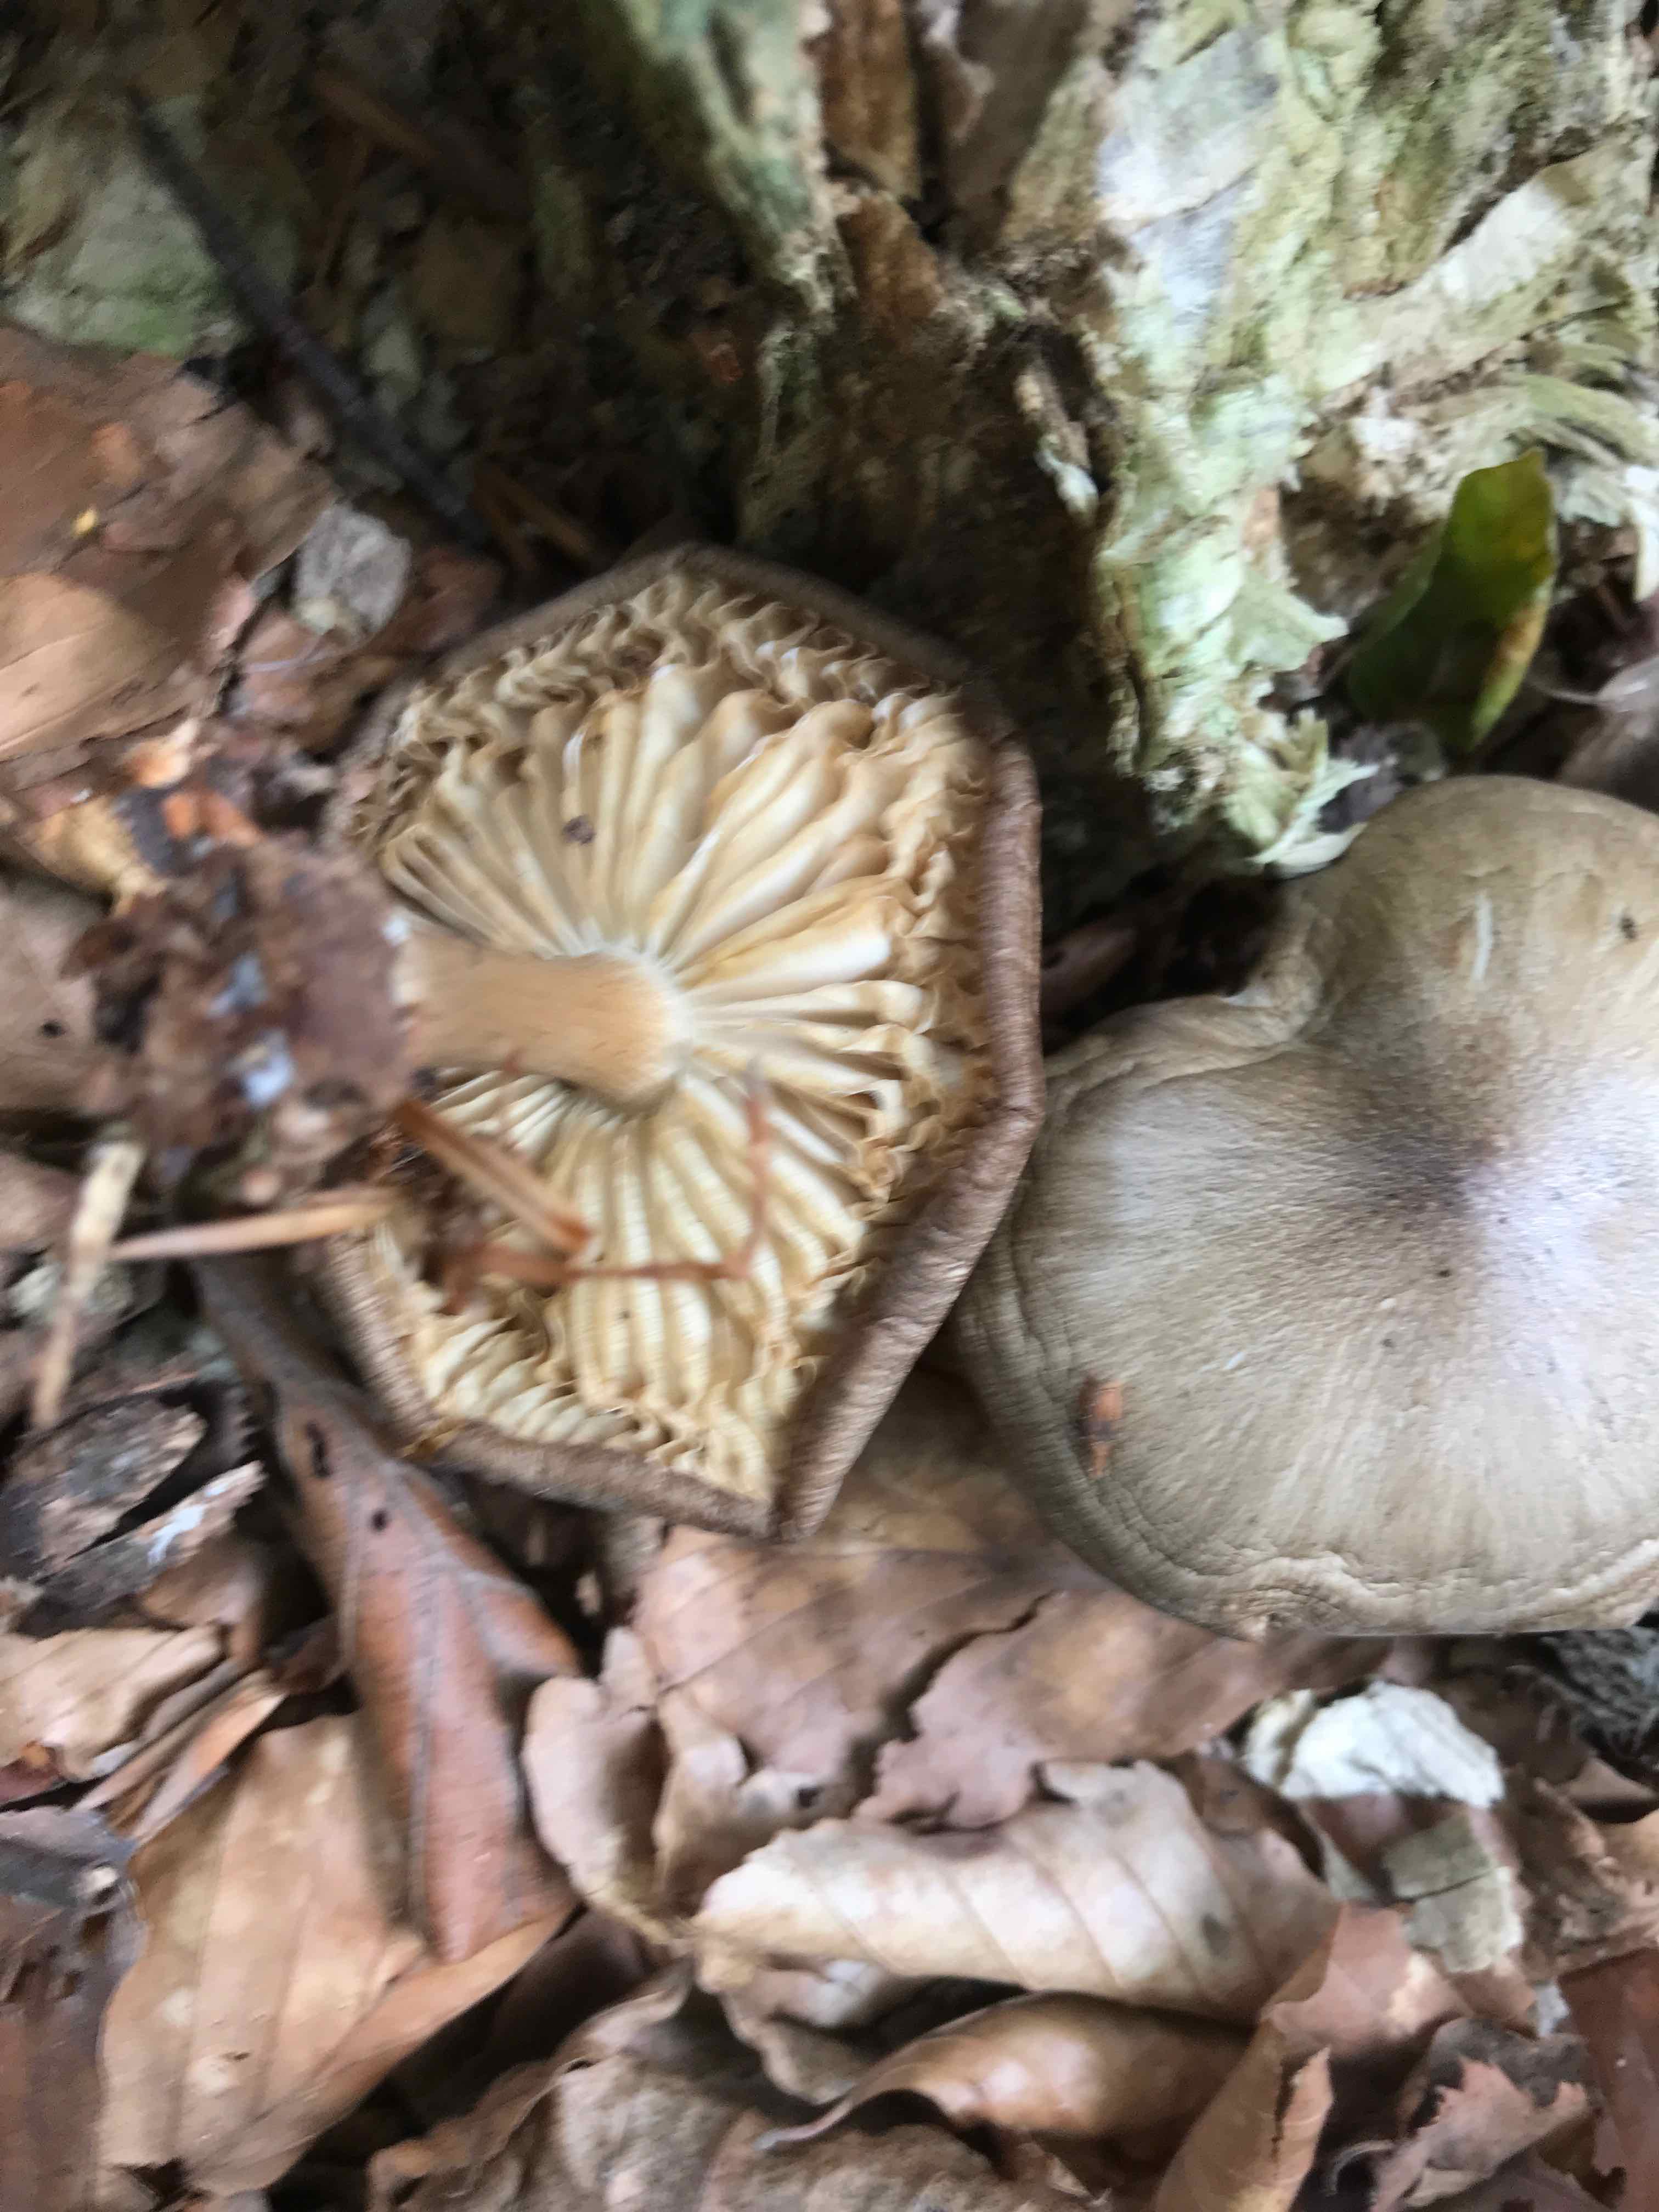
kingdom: Fungi
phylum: Basidiomycota
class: Agaricomycetes
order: Agaricales
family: Tricholomataceae
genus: Megacollybia
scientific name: Megacollybia platyphylla
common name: bredbladet væbnerhat
